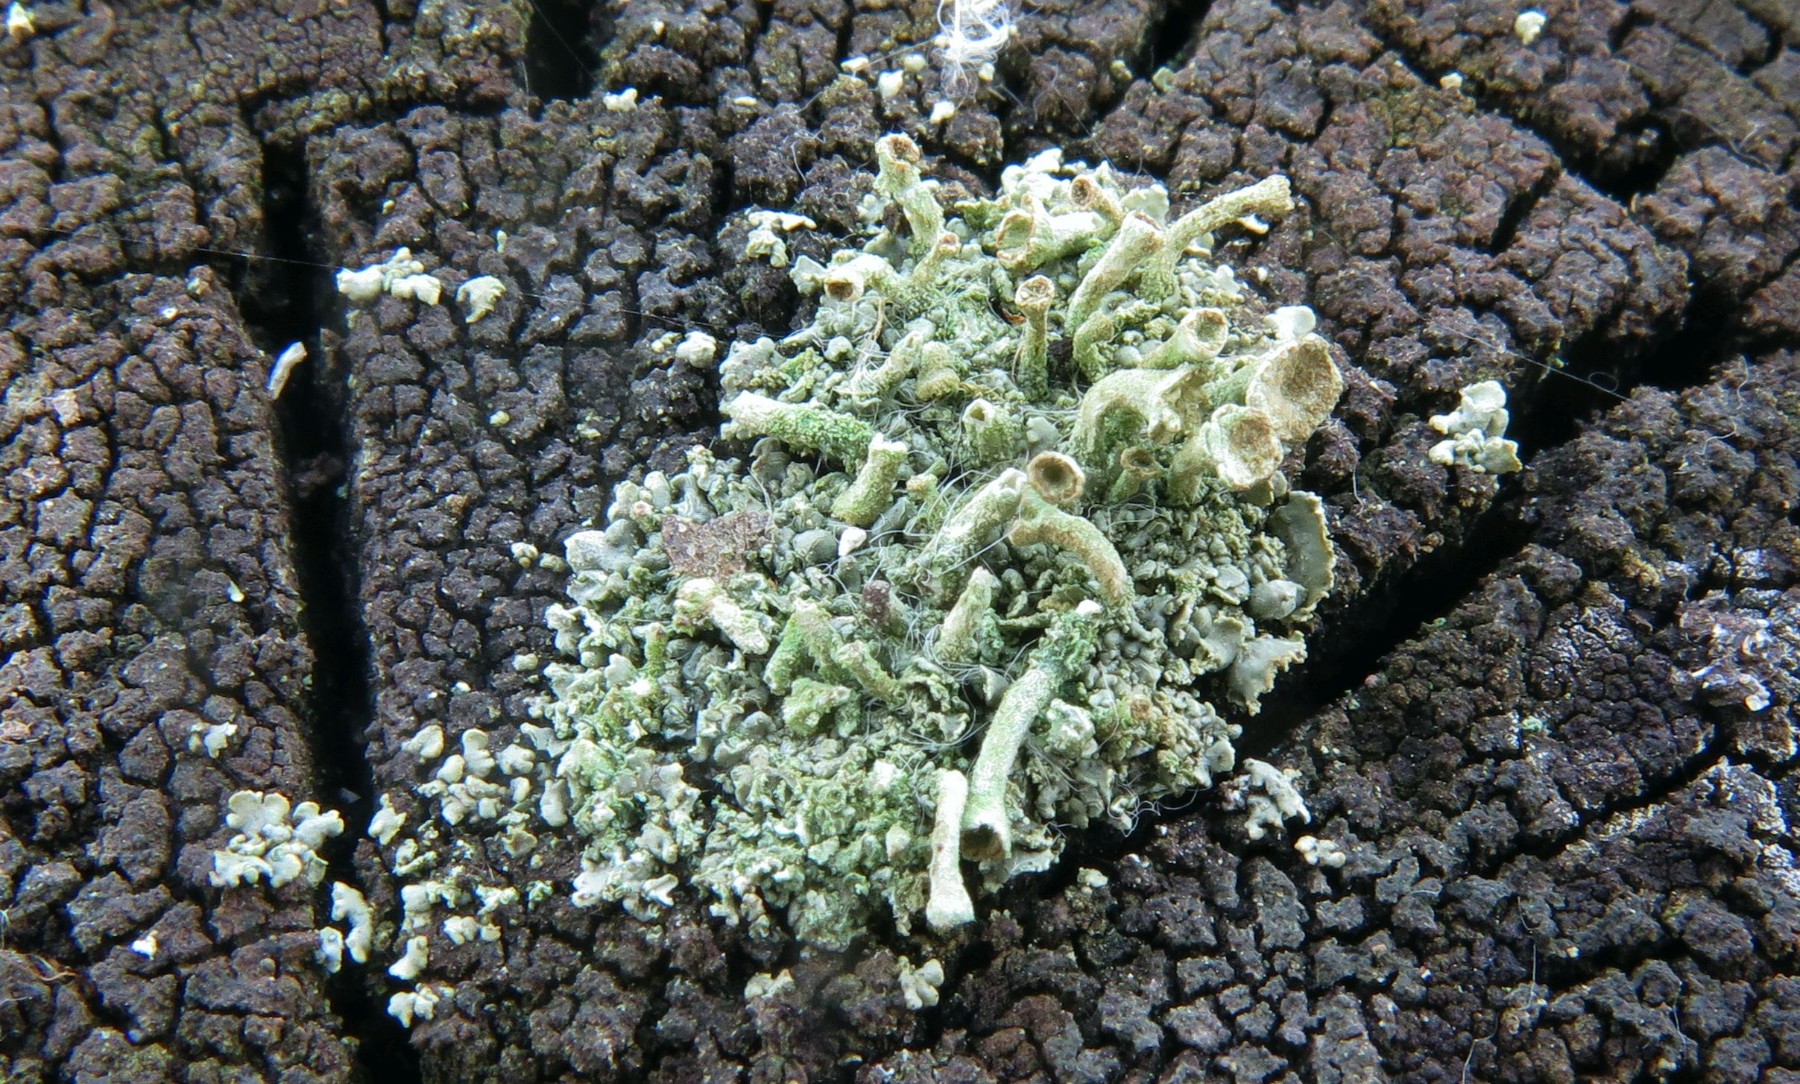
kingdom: Fungi
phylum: Ascomycota
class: Lecanoromycetes
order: Lecanorales
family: Cladoniaceae
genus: Cladonia
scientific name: Cladonia fimbriata
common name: bleggrøn bægerlav
